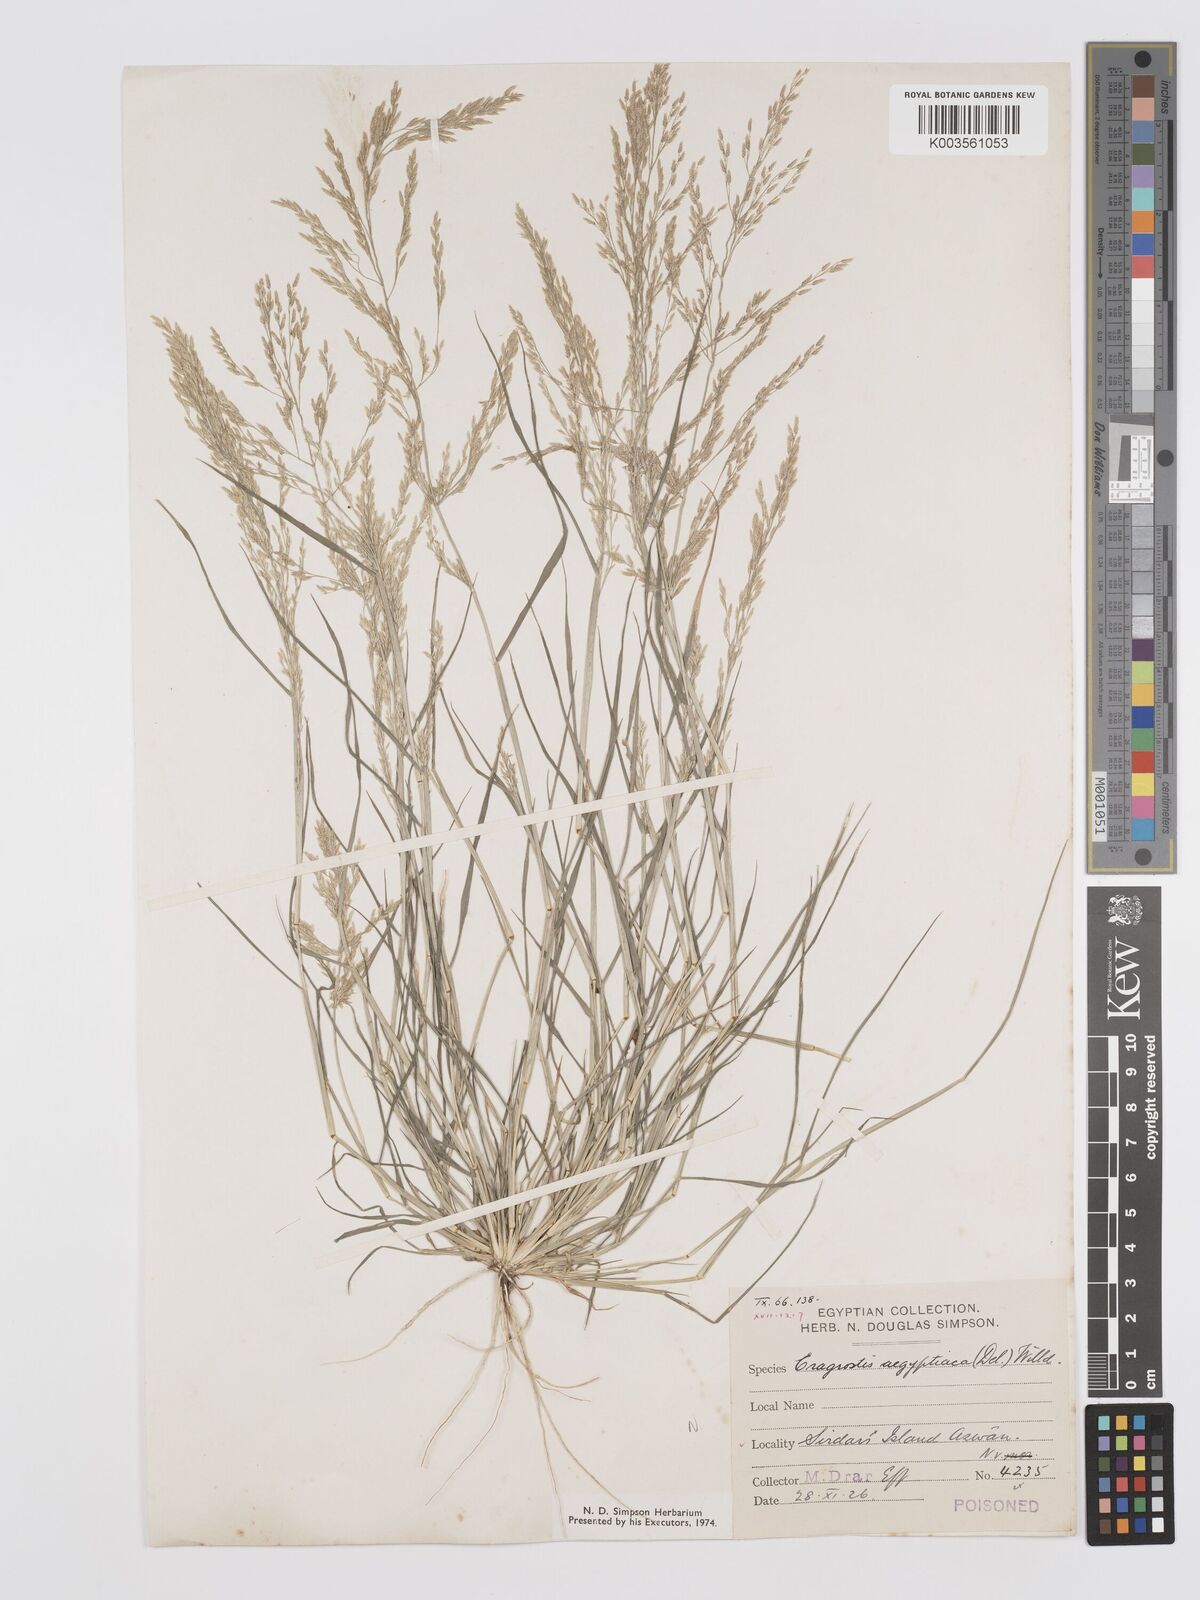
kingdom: Plantae
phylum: Tracheophyta
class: Liliopsida
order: Poales
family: Poaceae
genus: Eragrostis
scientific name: Eragrostis aegyptiaca
